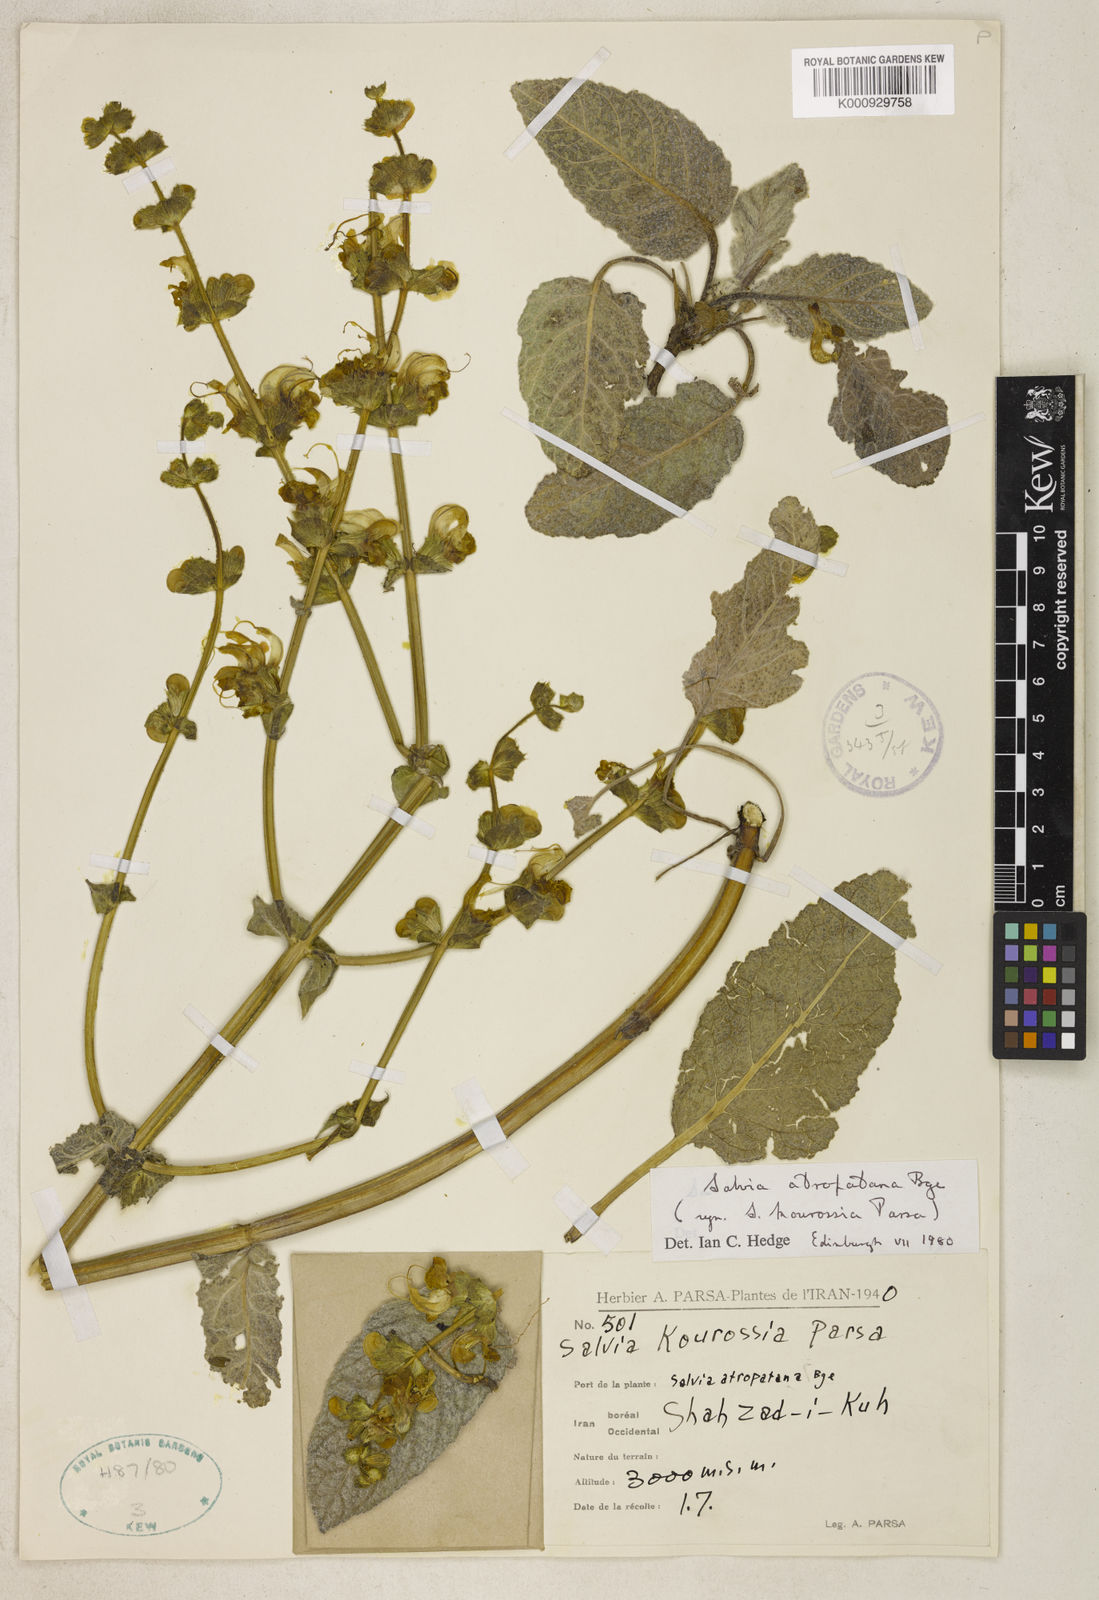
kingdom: Plantae
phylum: Tracheophyta
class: Magnoliopsida
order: Lamiales
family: Lamiaceae
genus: Salvia
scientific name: Salvia atropatana
